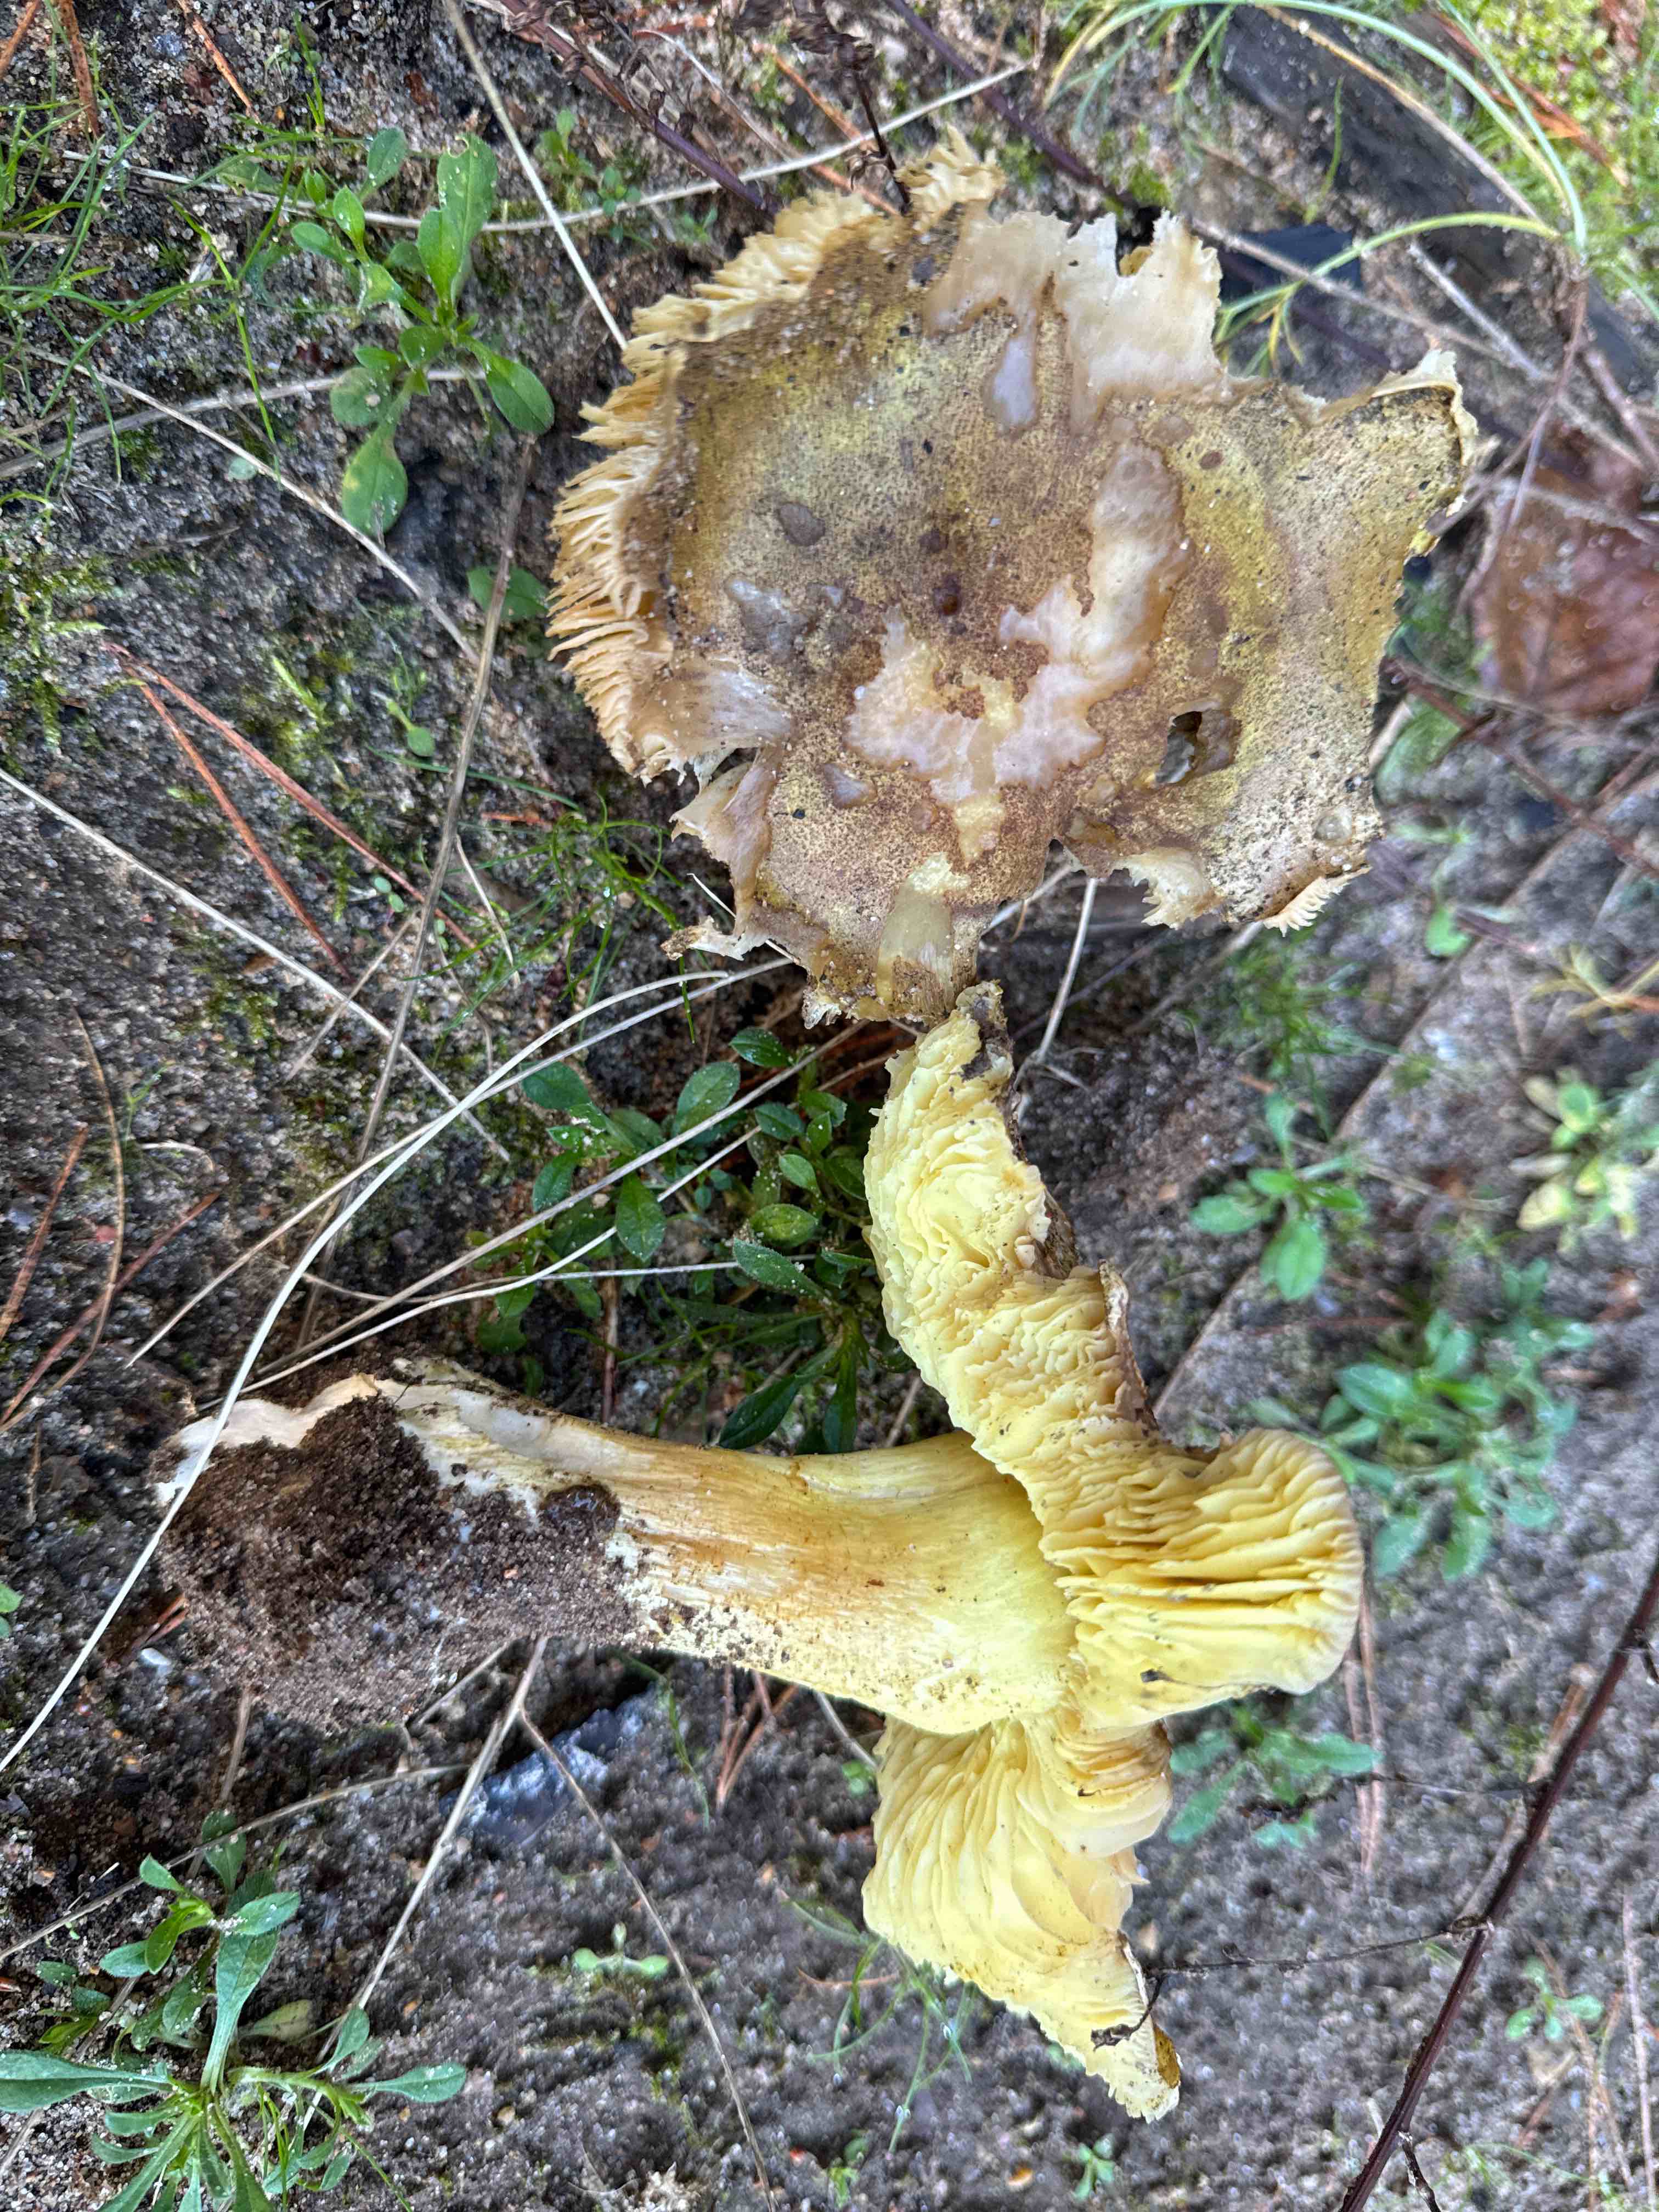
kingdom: Fungi
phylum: Basidiomycota
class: Agaricomycetes
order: Agaricales
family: Tricholomataceae
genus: Tricholoma
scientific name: Tricholoma equestre
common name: ægte ridderhat
